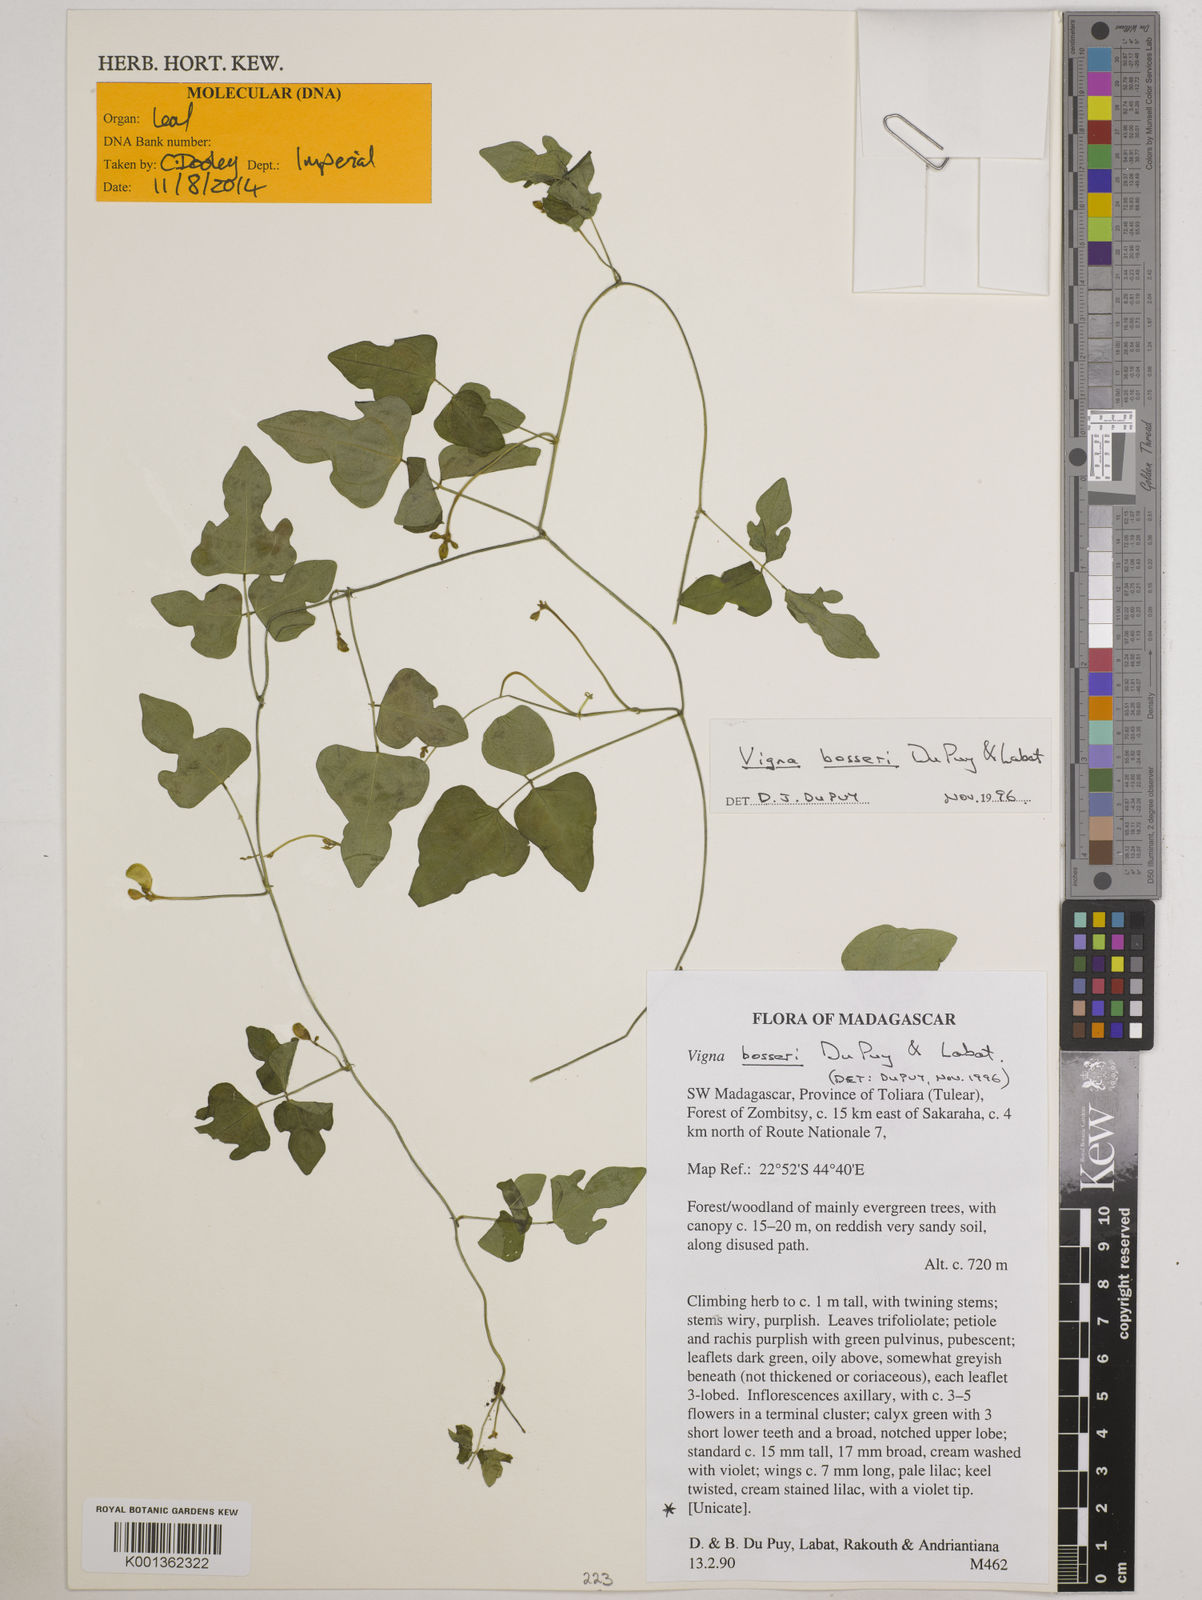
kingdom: Plantae
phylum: Tracheophyta
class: Magnoliopsida
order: Fabales
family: Fabaceae
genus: Vigna
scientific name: Vigna bosseri
